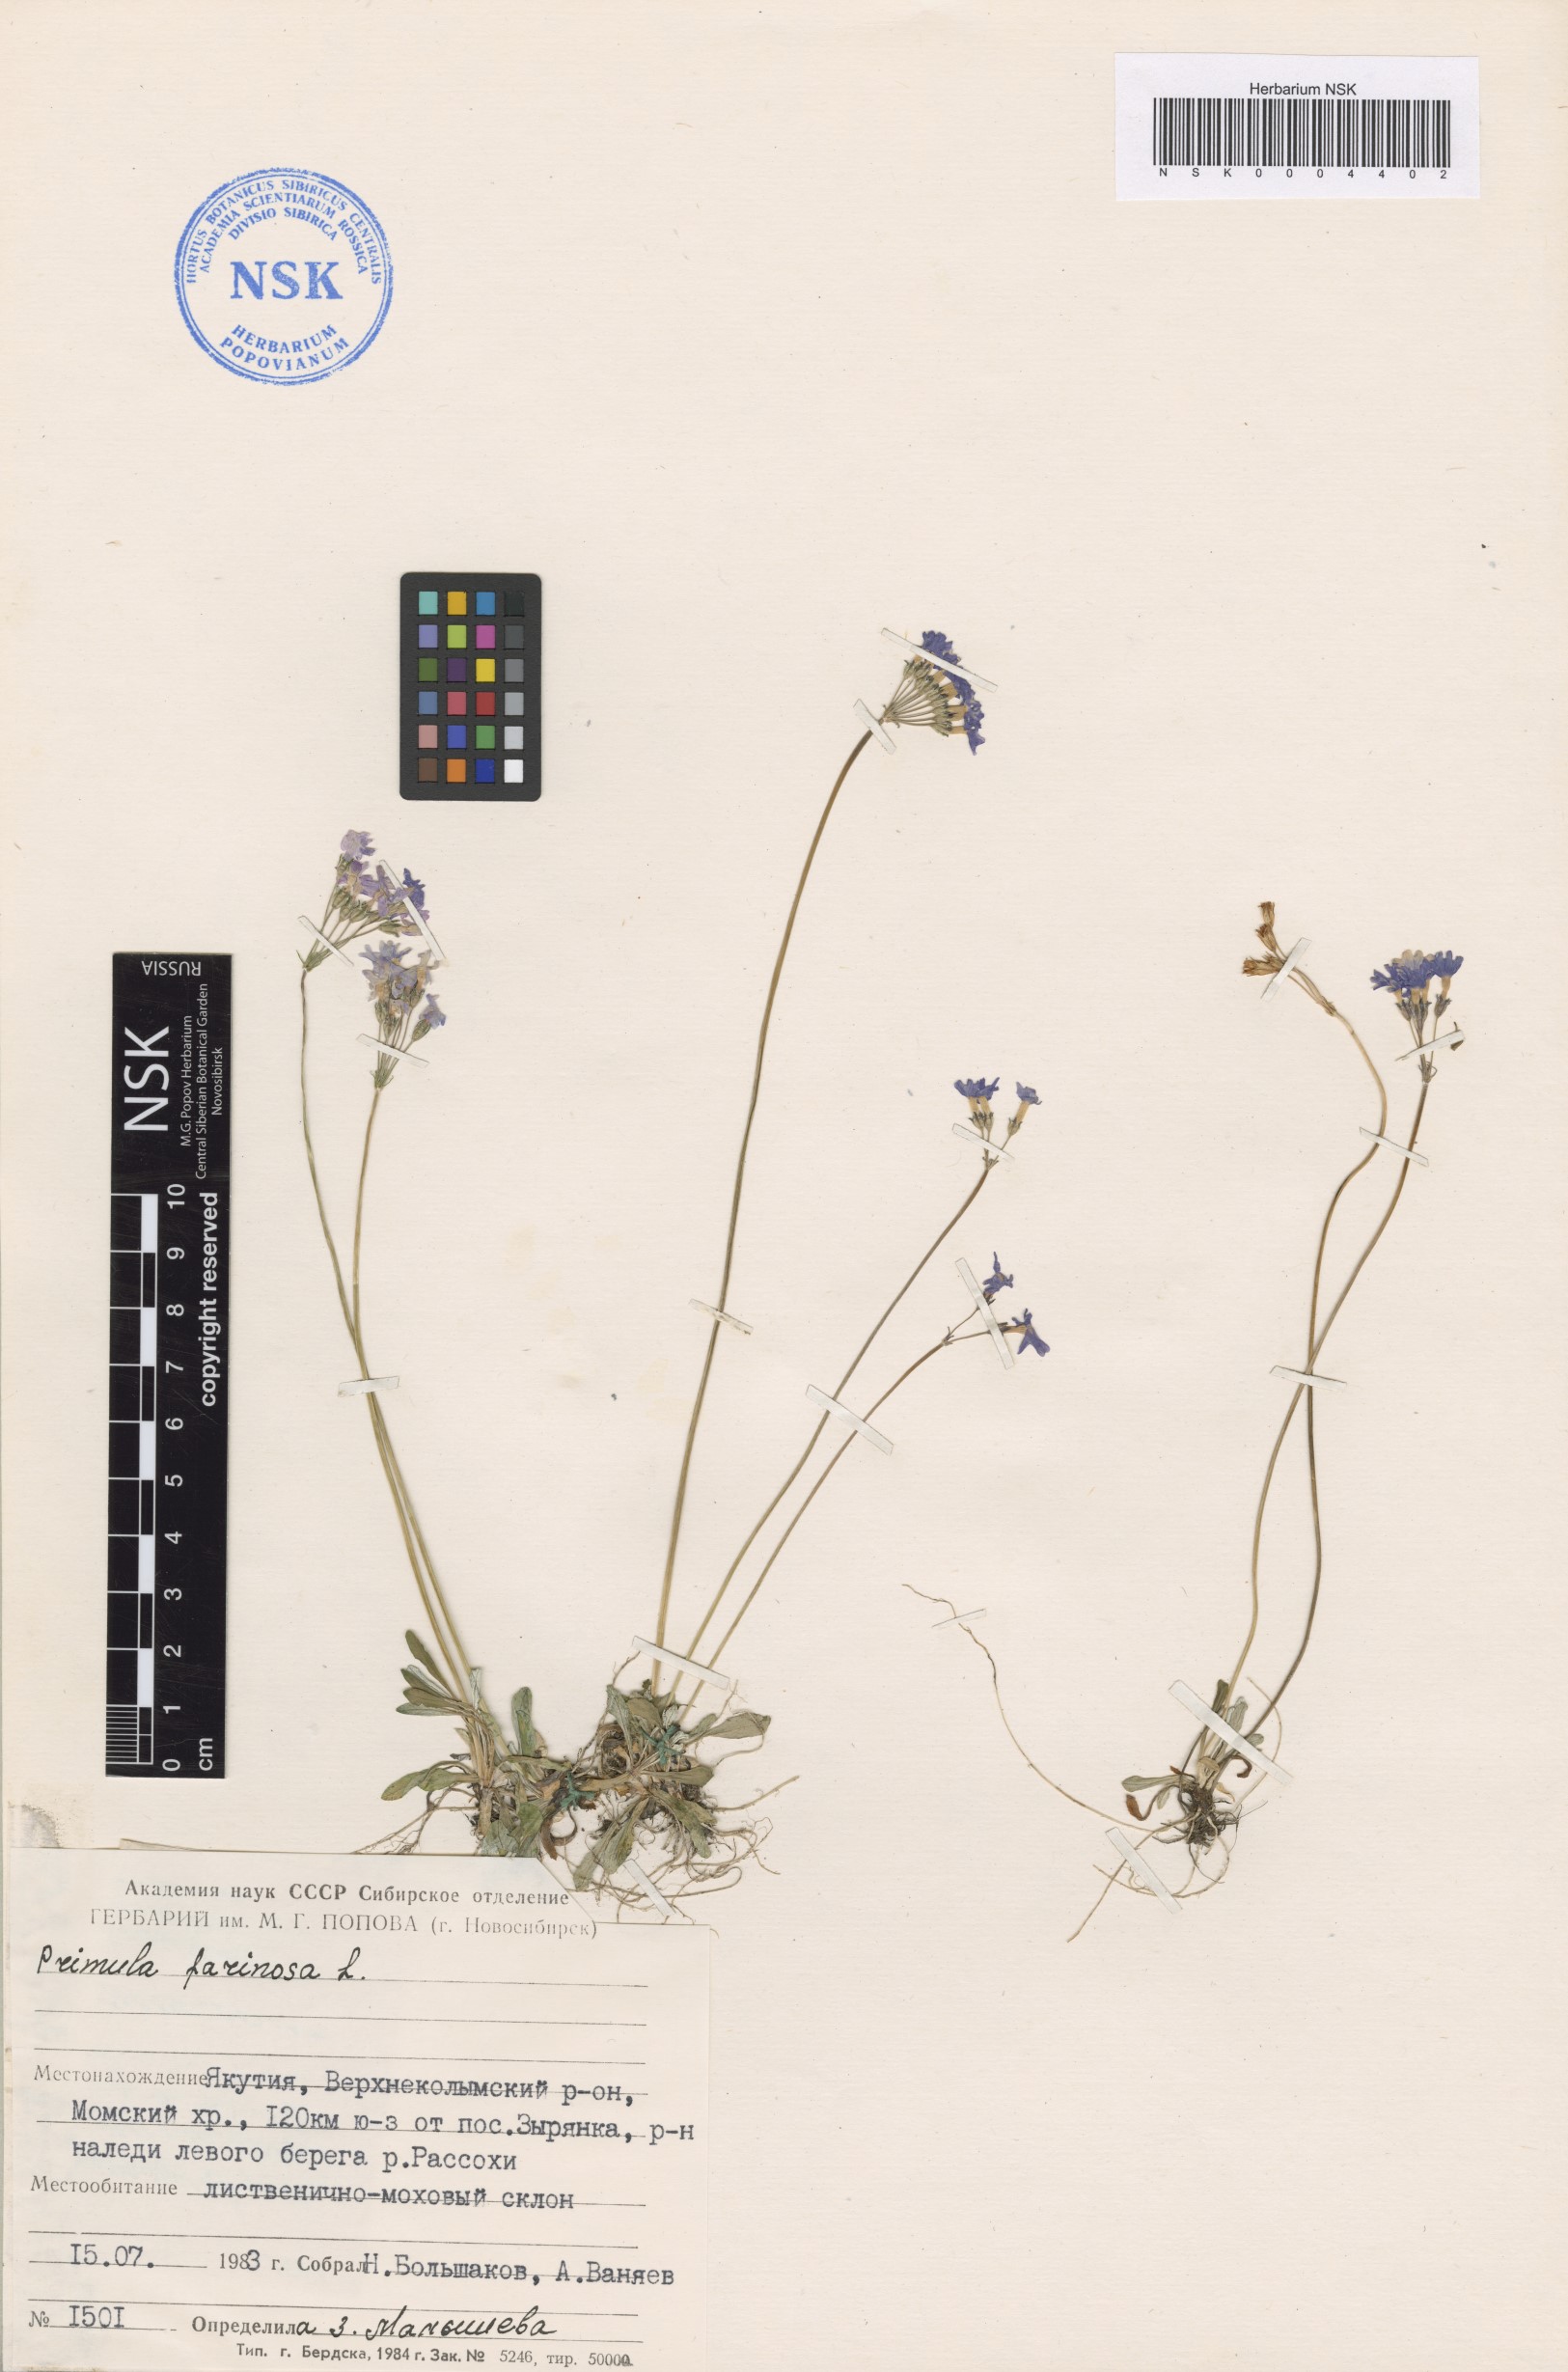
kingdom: Plantae
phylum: Tracheophyta
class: Magnoliopsida
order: Ericales
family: Primulaceae
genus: Primula
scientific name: Primula farinosa
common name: Bird's-eye primrose
